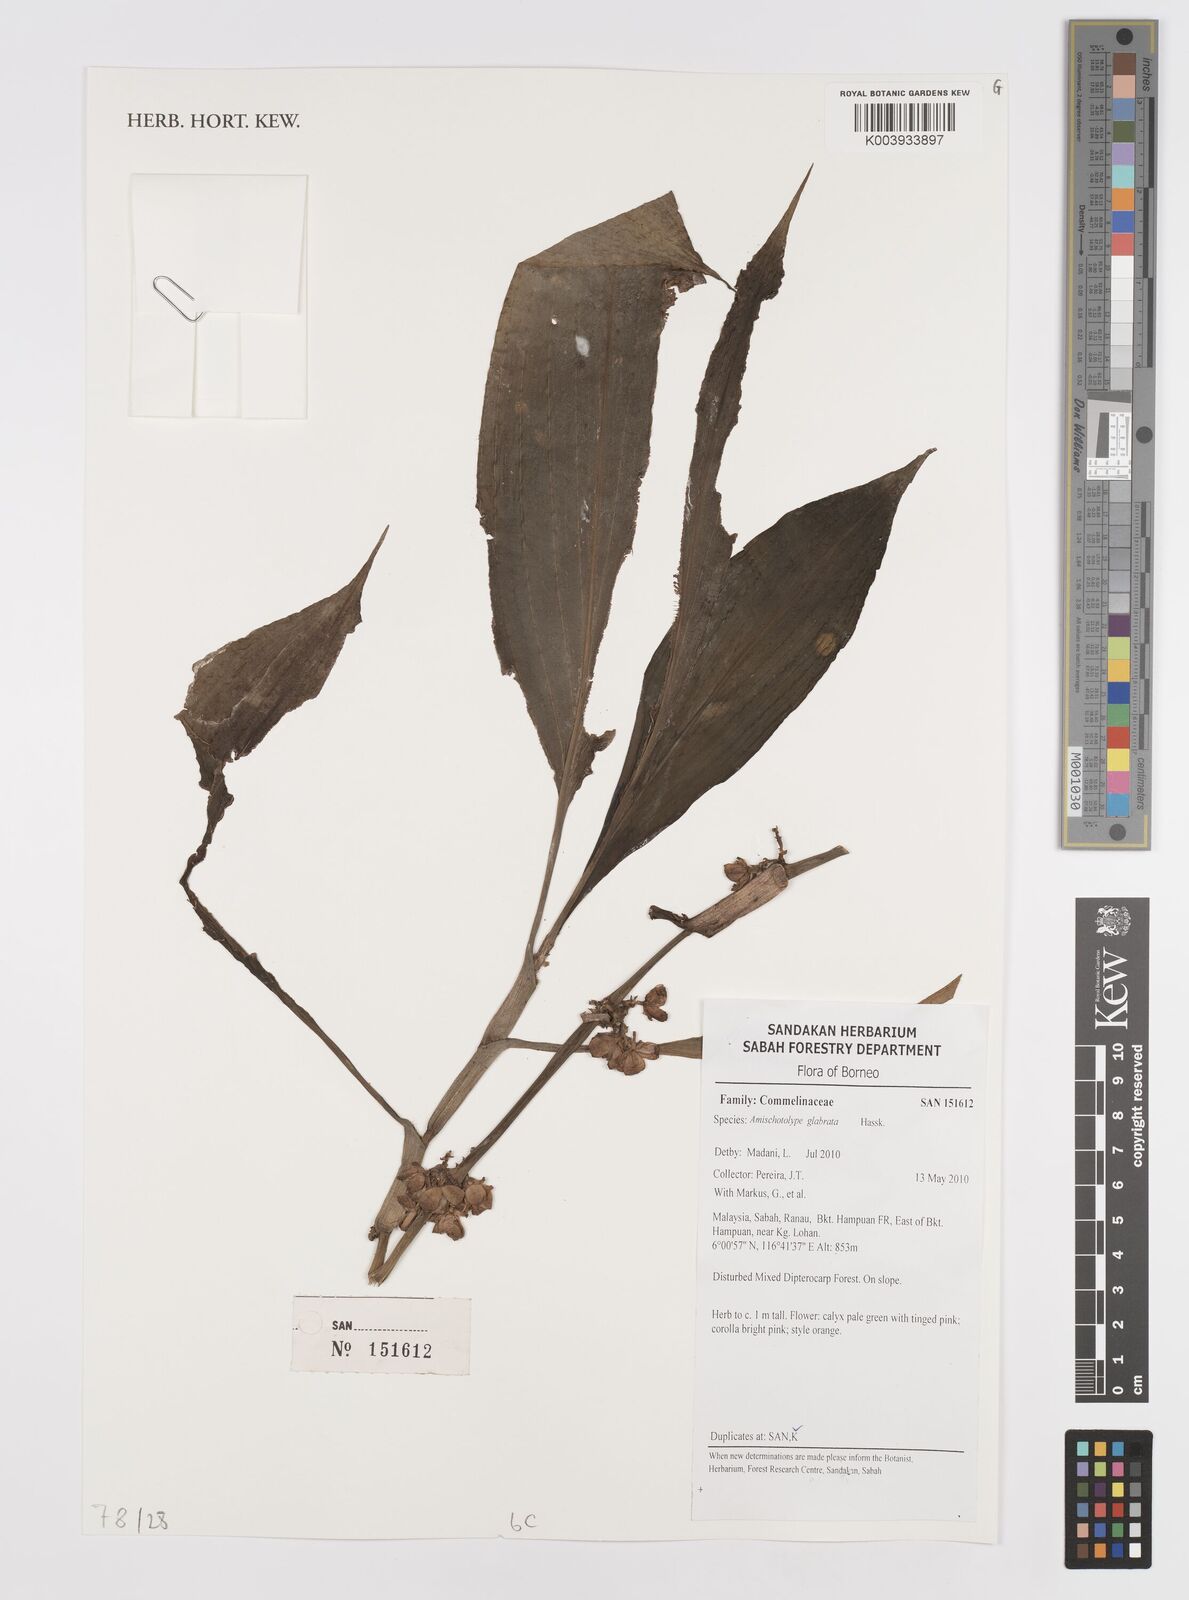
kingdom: Plantae
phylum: Tracheophyta
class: Liliopsida
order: Commelinales
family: Commelinaceae
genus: Amischotolype
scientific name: Amischotolype glabrata
